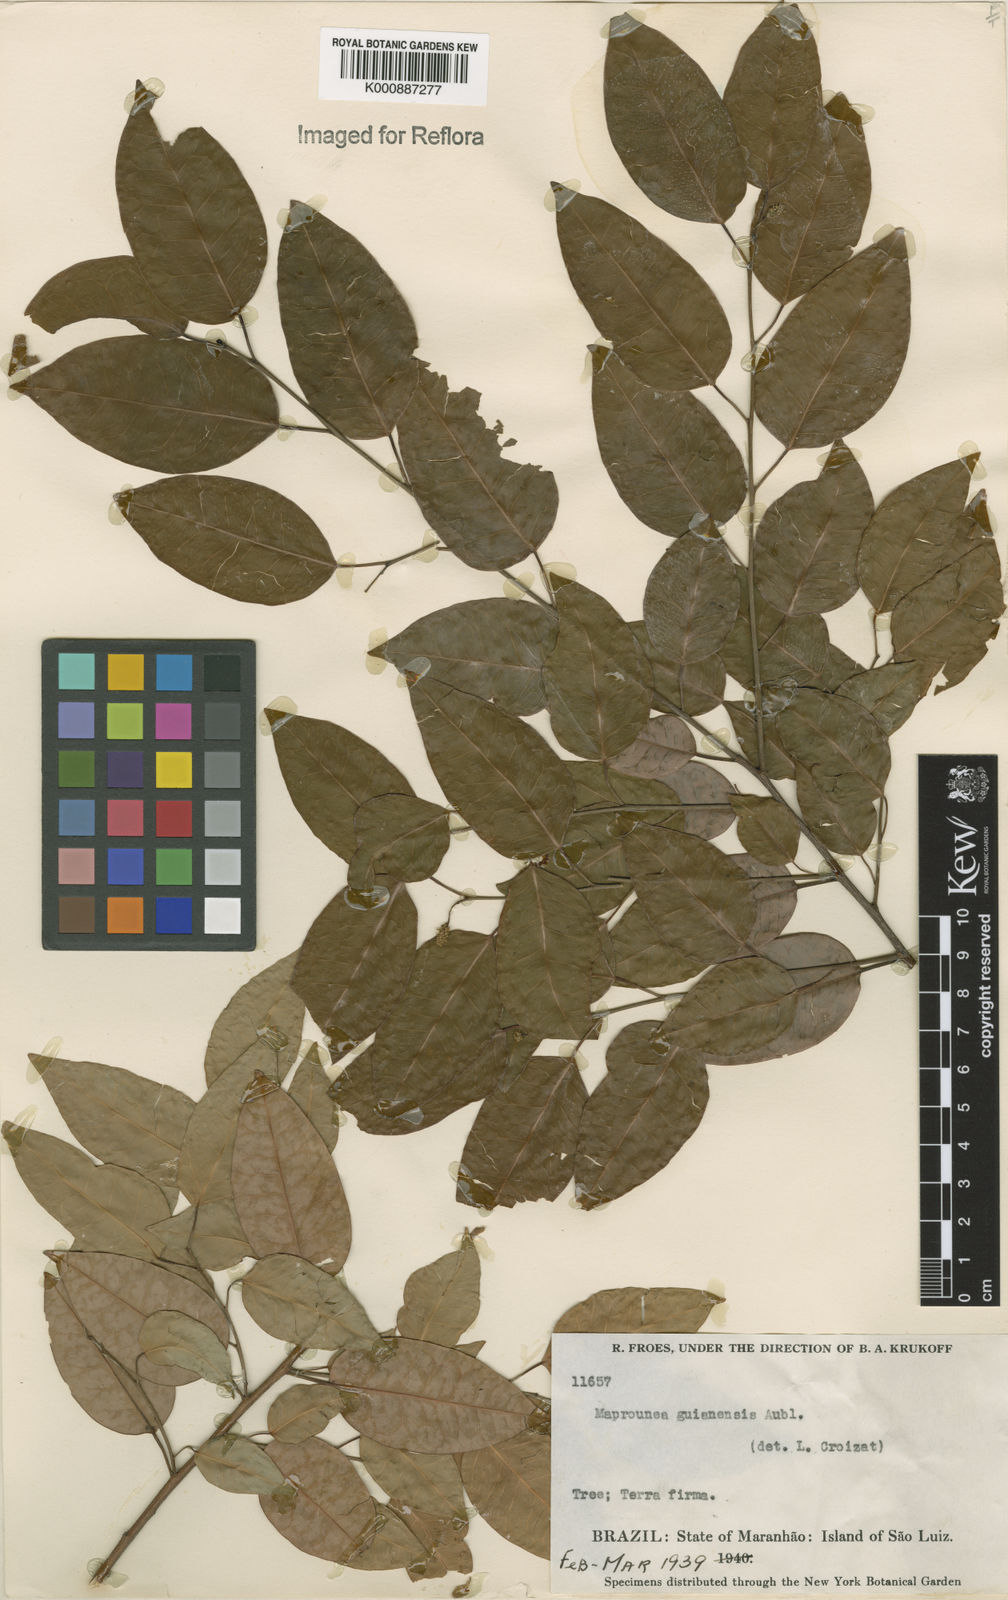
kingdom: Plantae
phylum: Tracheophyta
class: Magnoliopsida
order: Malpighiales
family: Euphorbiaceae
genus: Maprounea
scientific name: Maprounea guianensis
